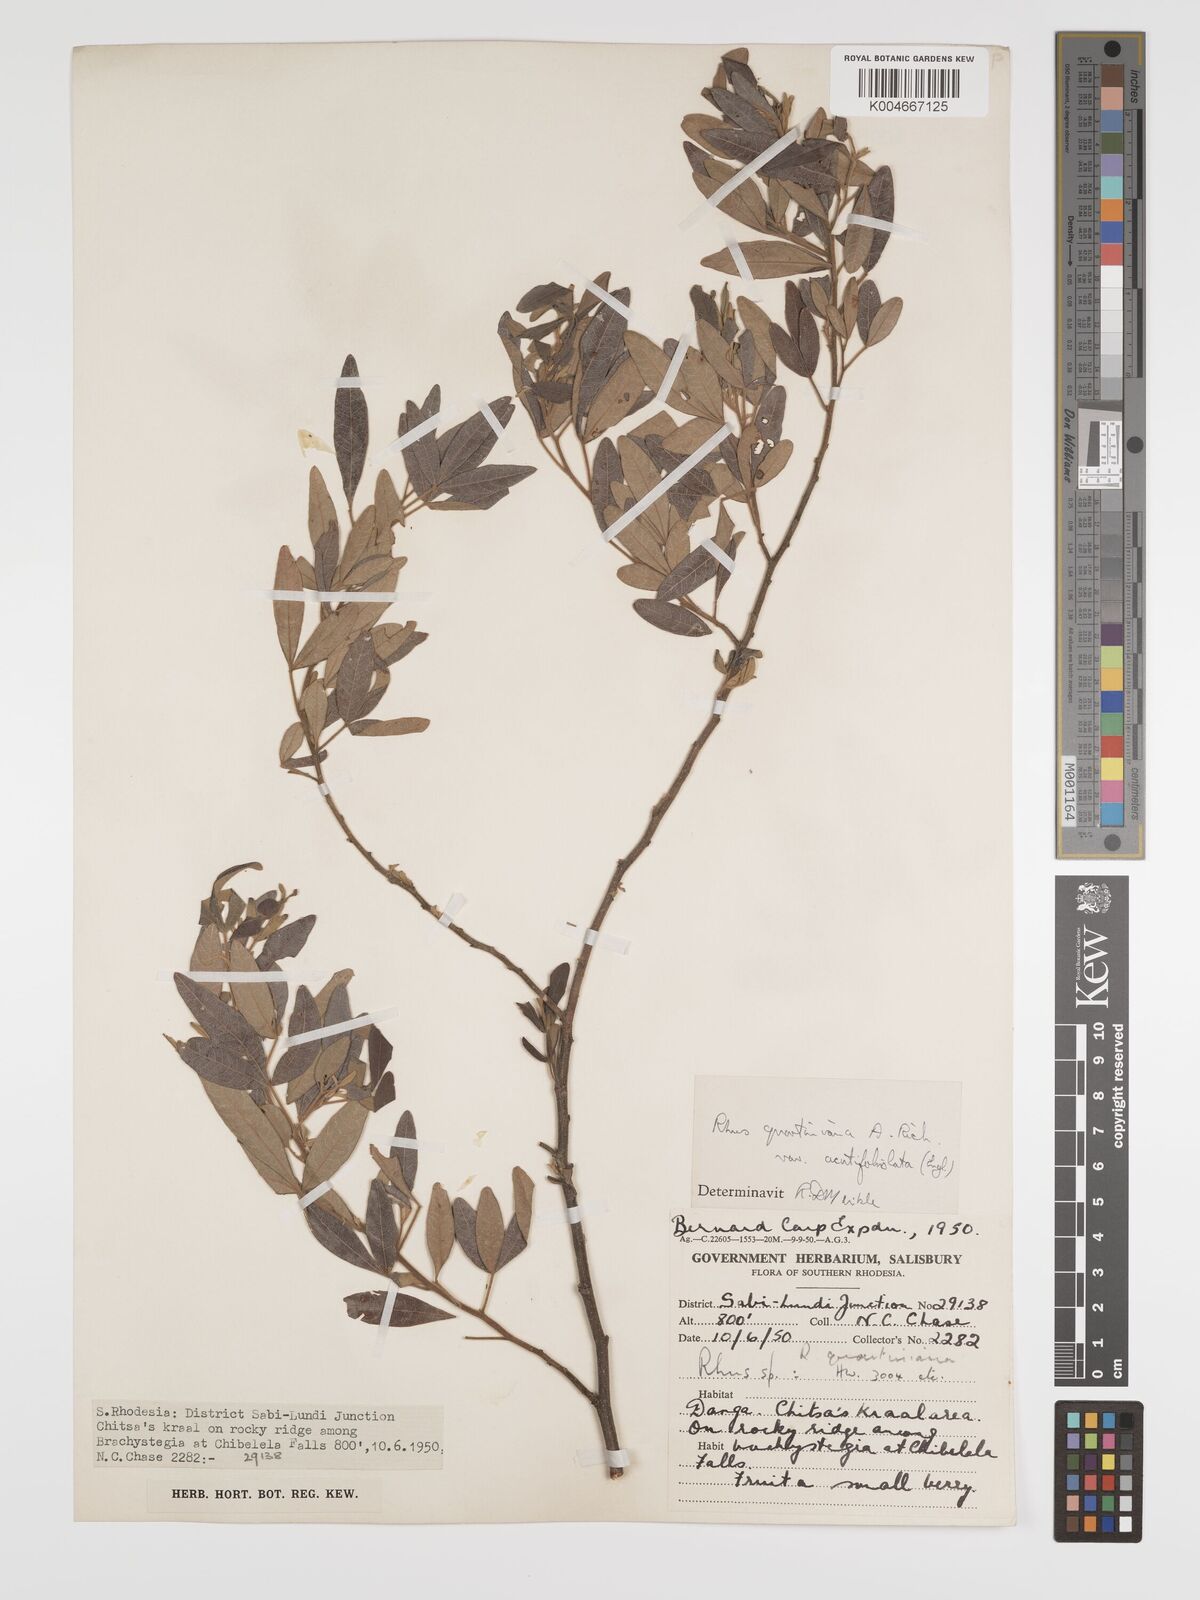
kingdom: Plantae
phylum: Tracheophyta
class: Magnoliopsida
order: Sapindales
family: Anacardiaceae
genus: Searsia
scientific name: Searsia quartiniana
